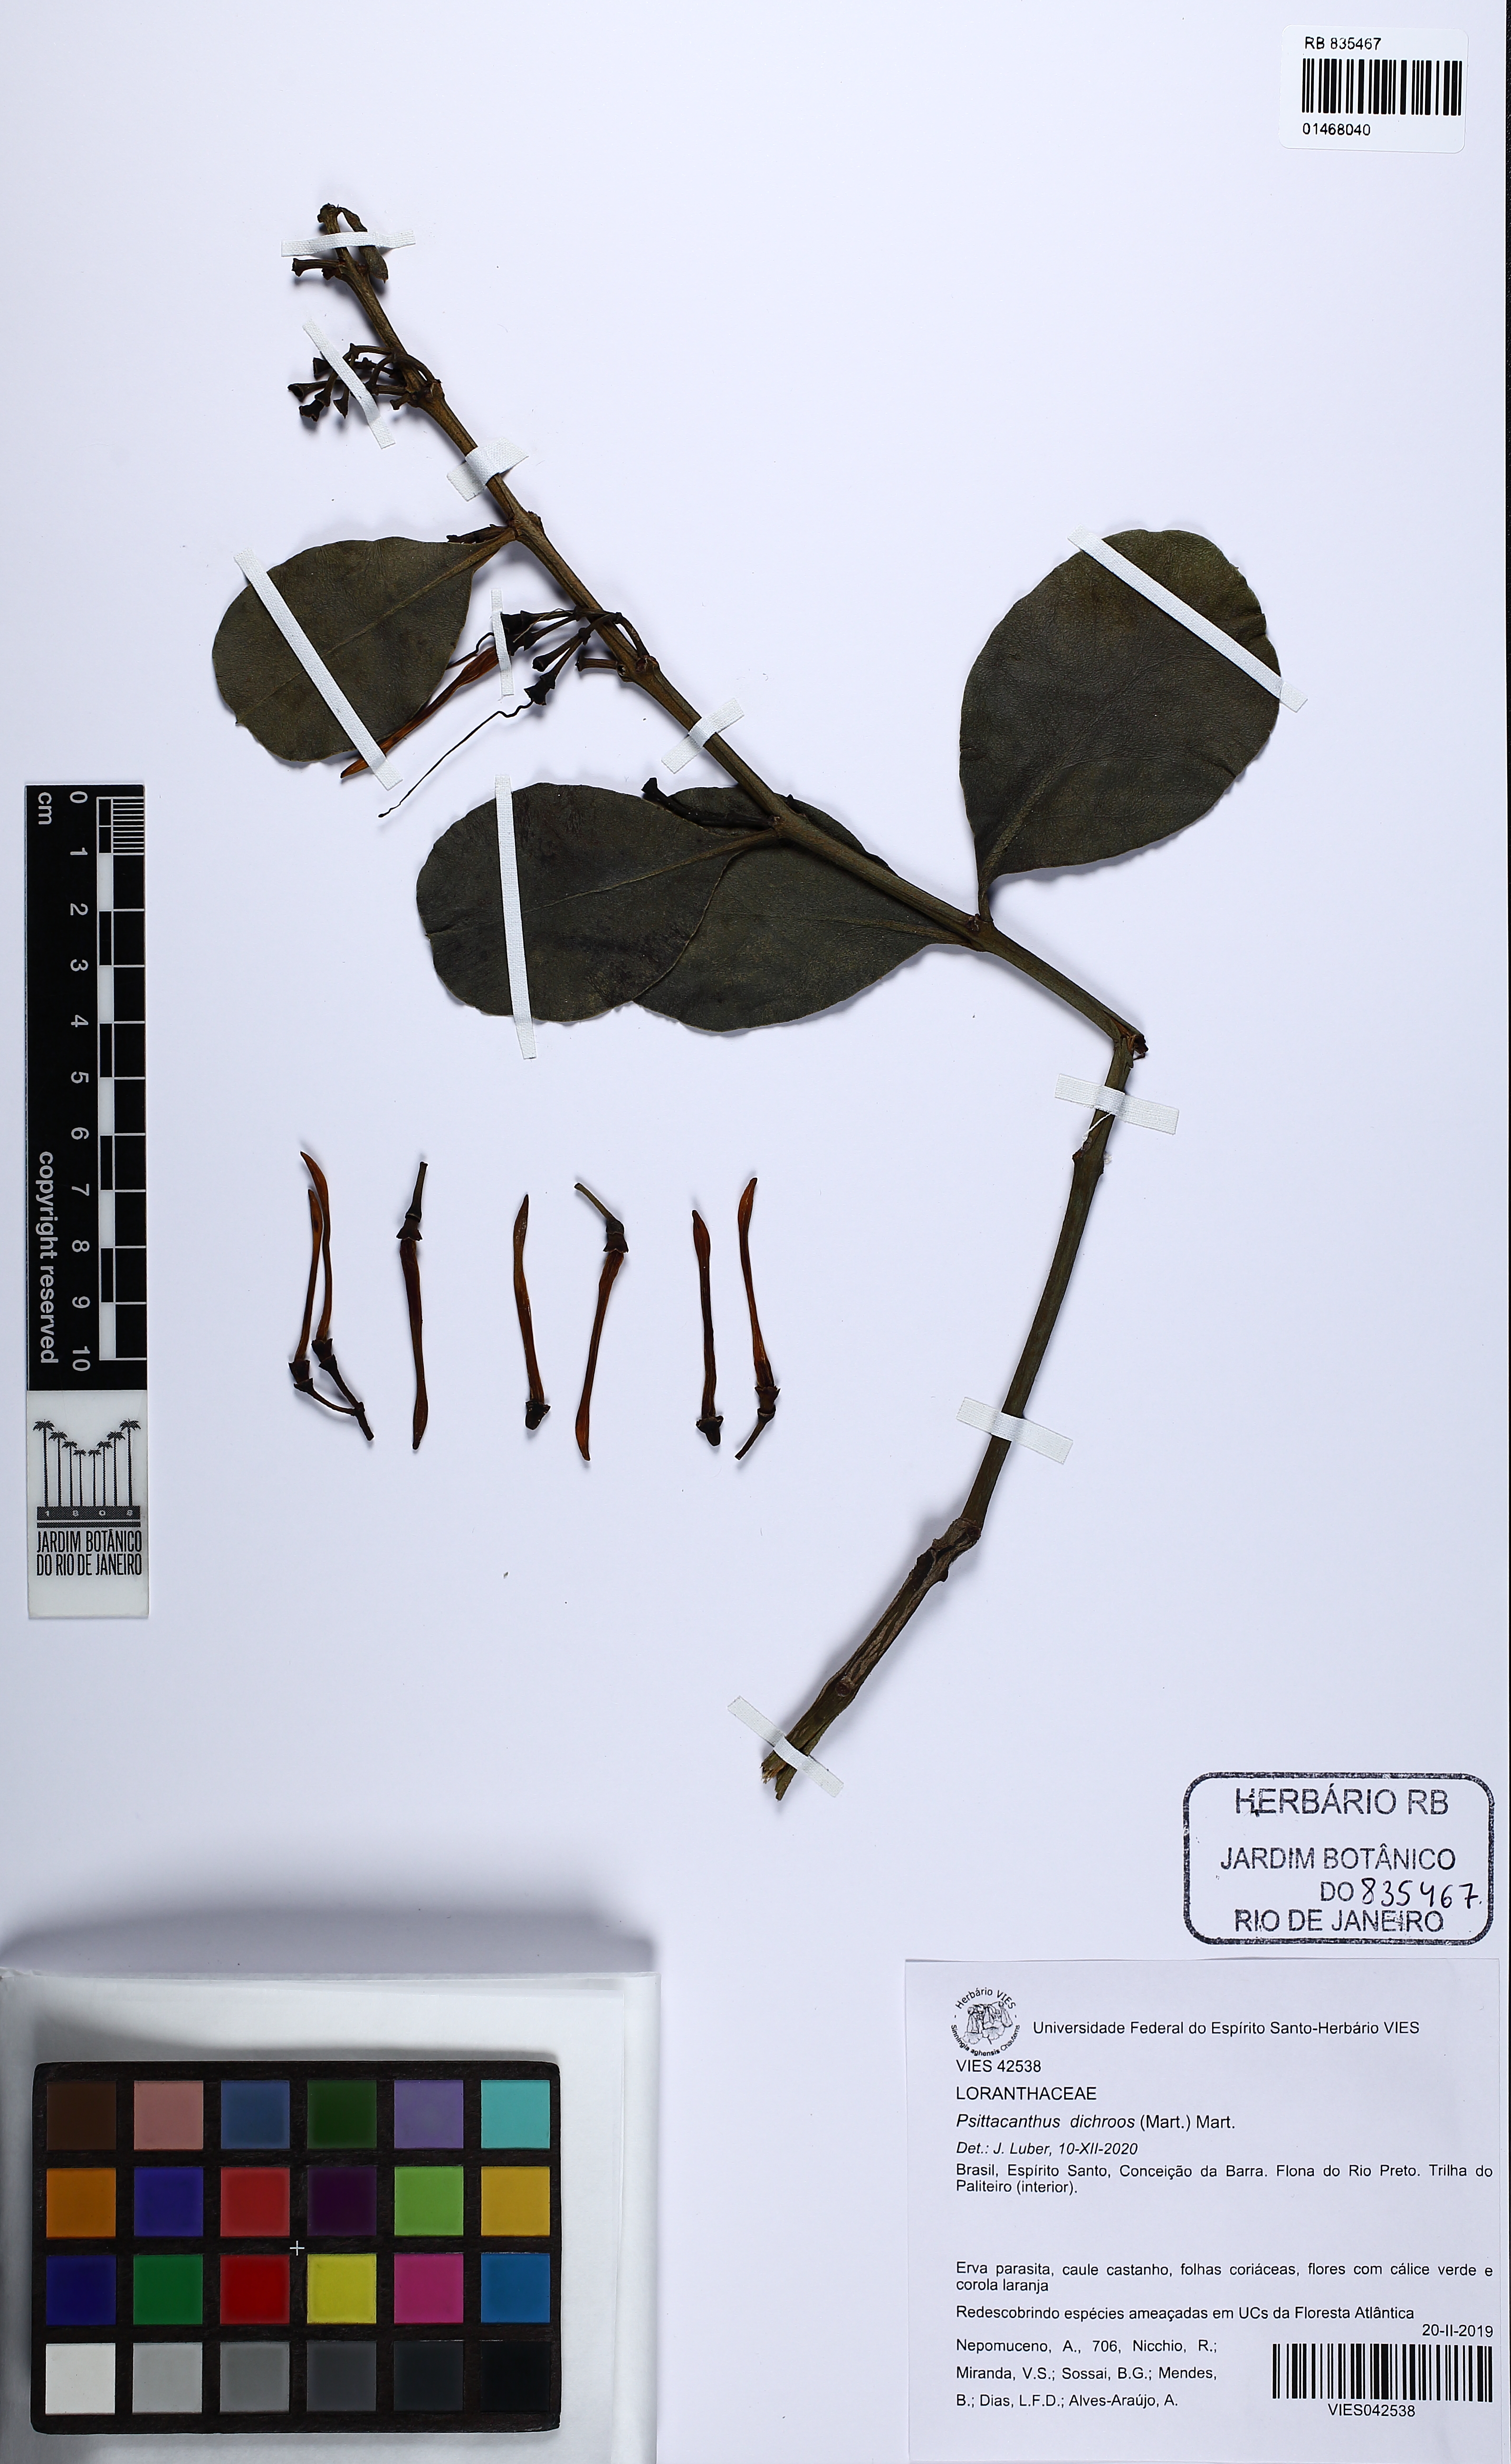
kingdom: Plantae
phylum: Tracheophyta
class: Magnoliopsida
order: Santalales
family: Loranthaceae
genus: Psittacanthus
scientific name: Psittacanthus dichroos
